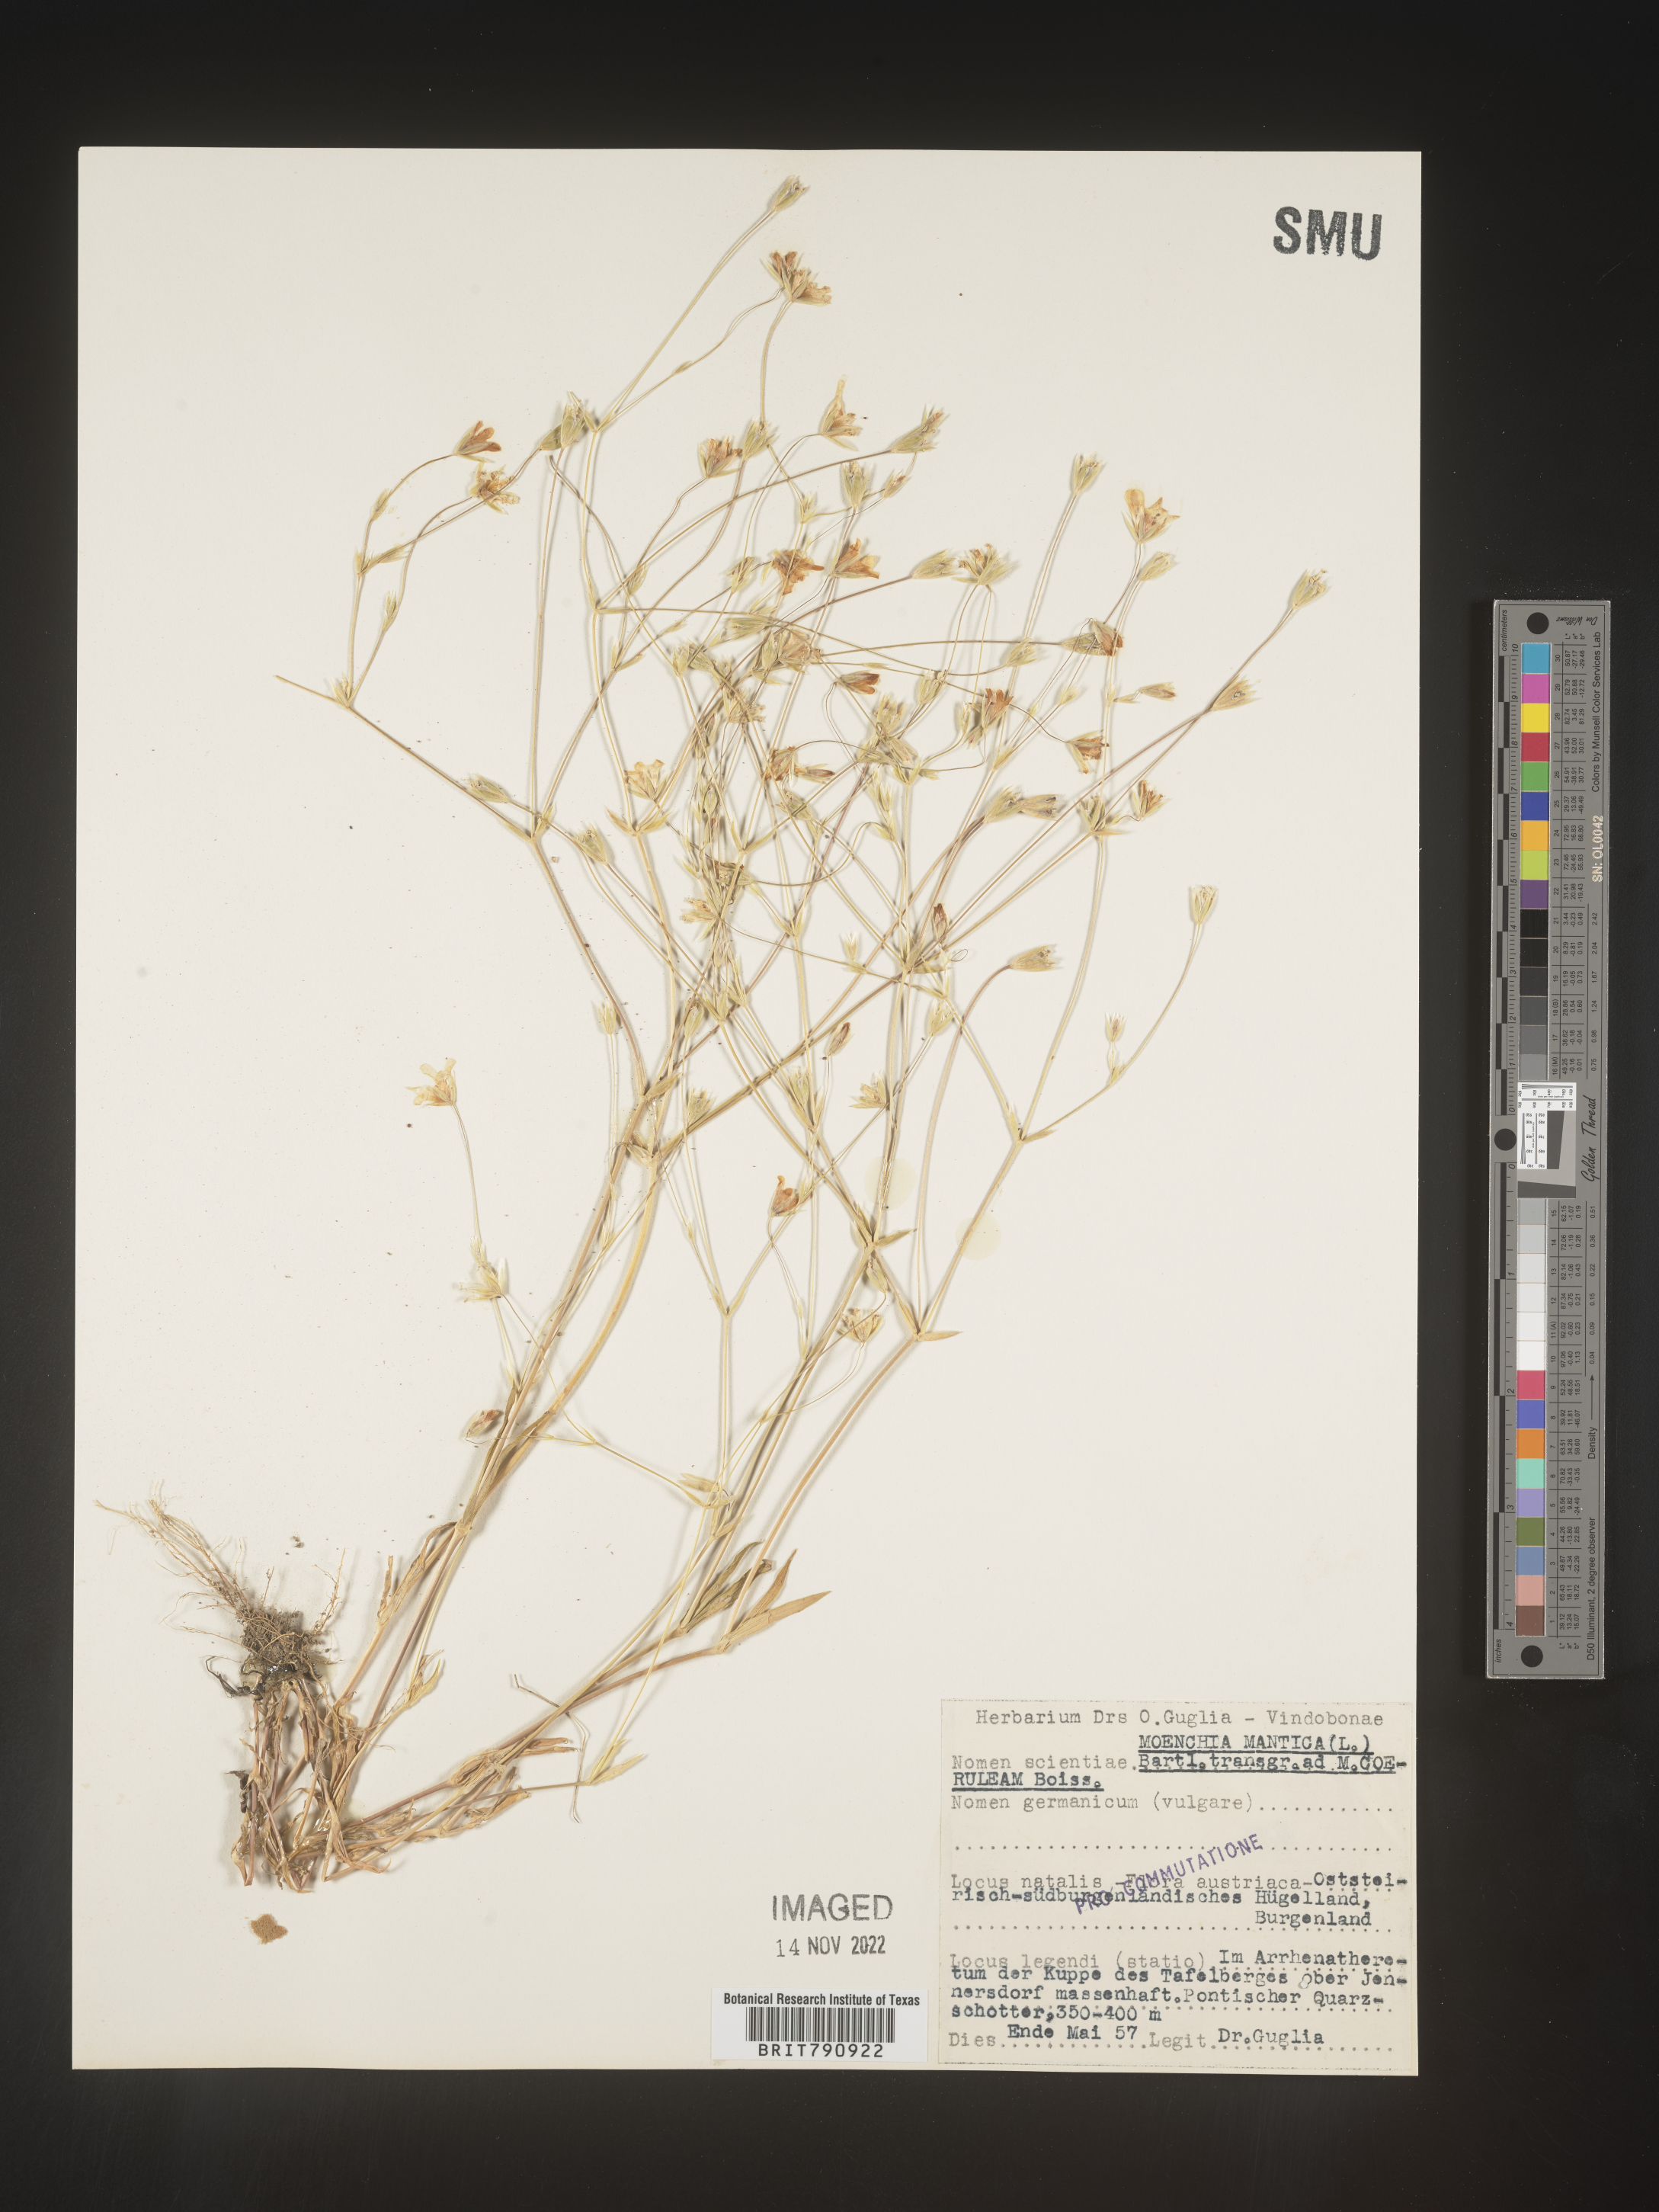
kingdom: Plantae
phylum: Tracheophyta
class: Magnoliopsida
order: Caryophyllales
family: Caryophyllaceae
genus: Moenchia
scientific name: Moenchia
